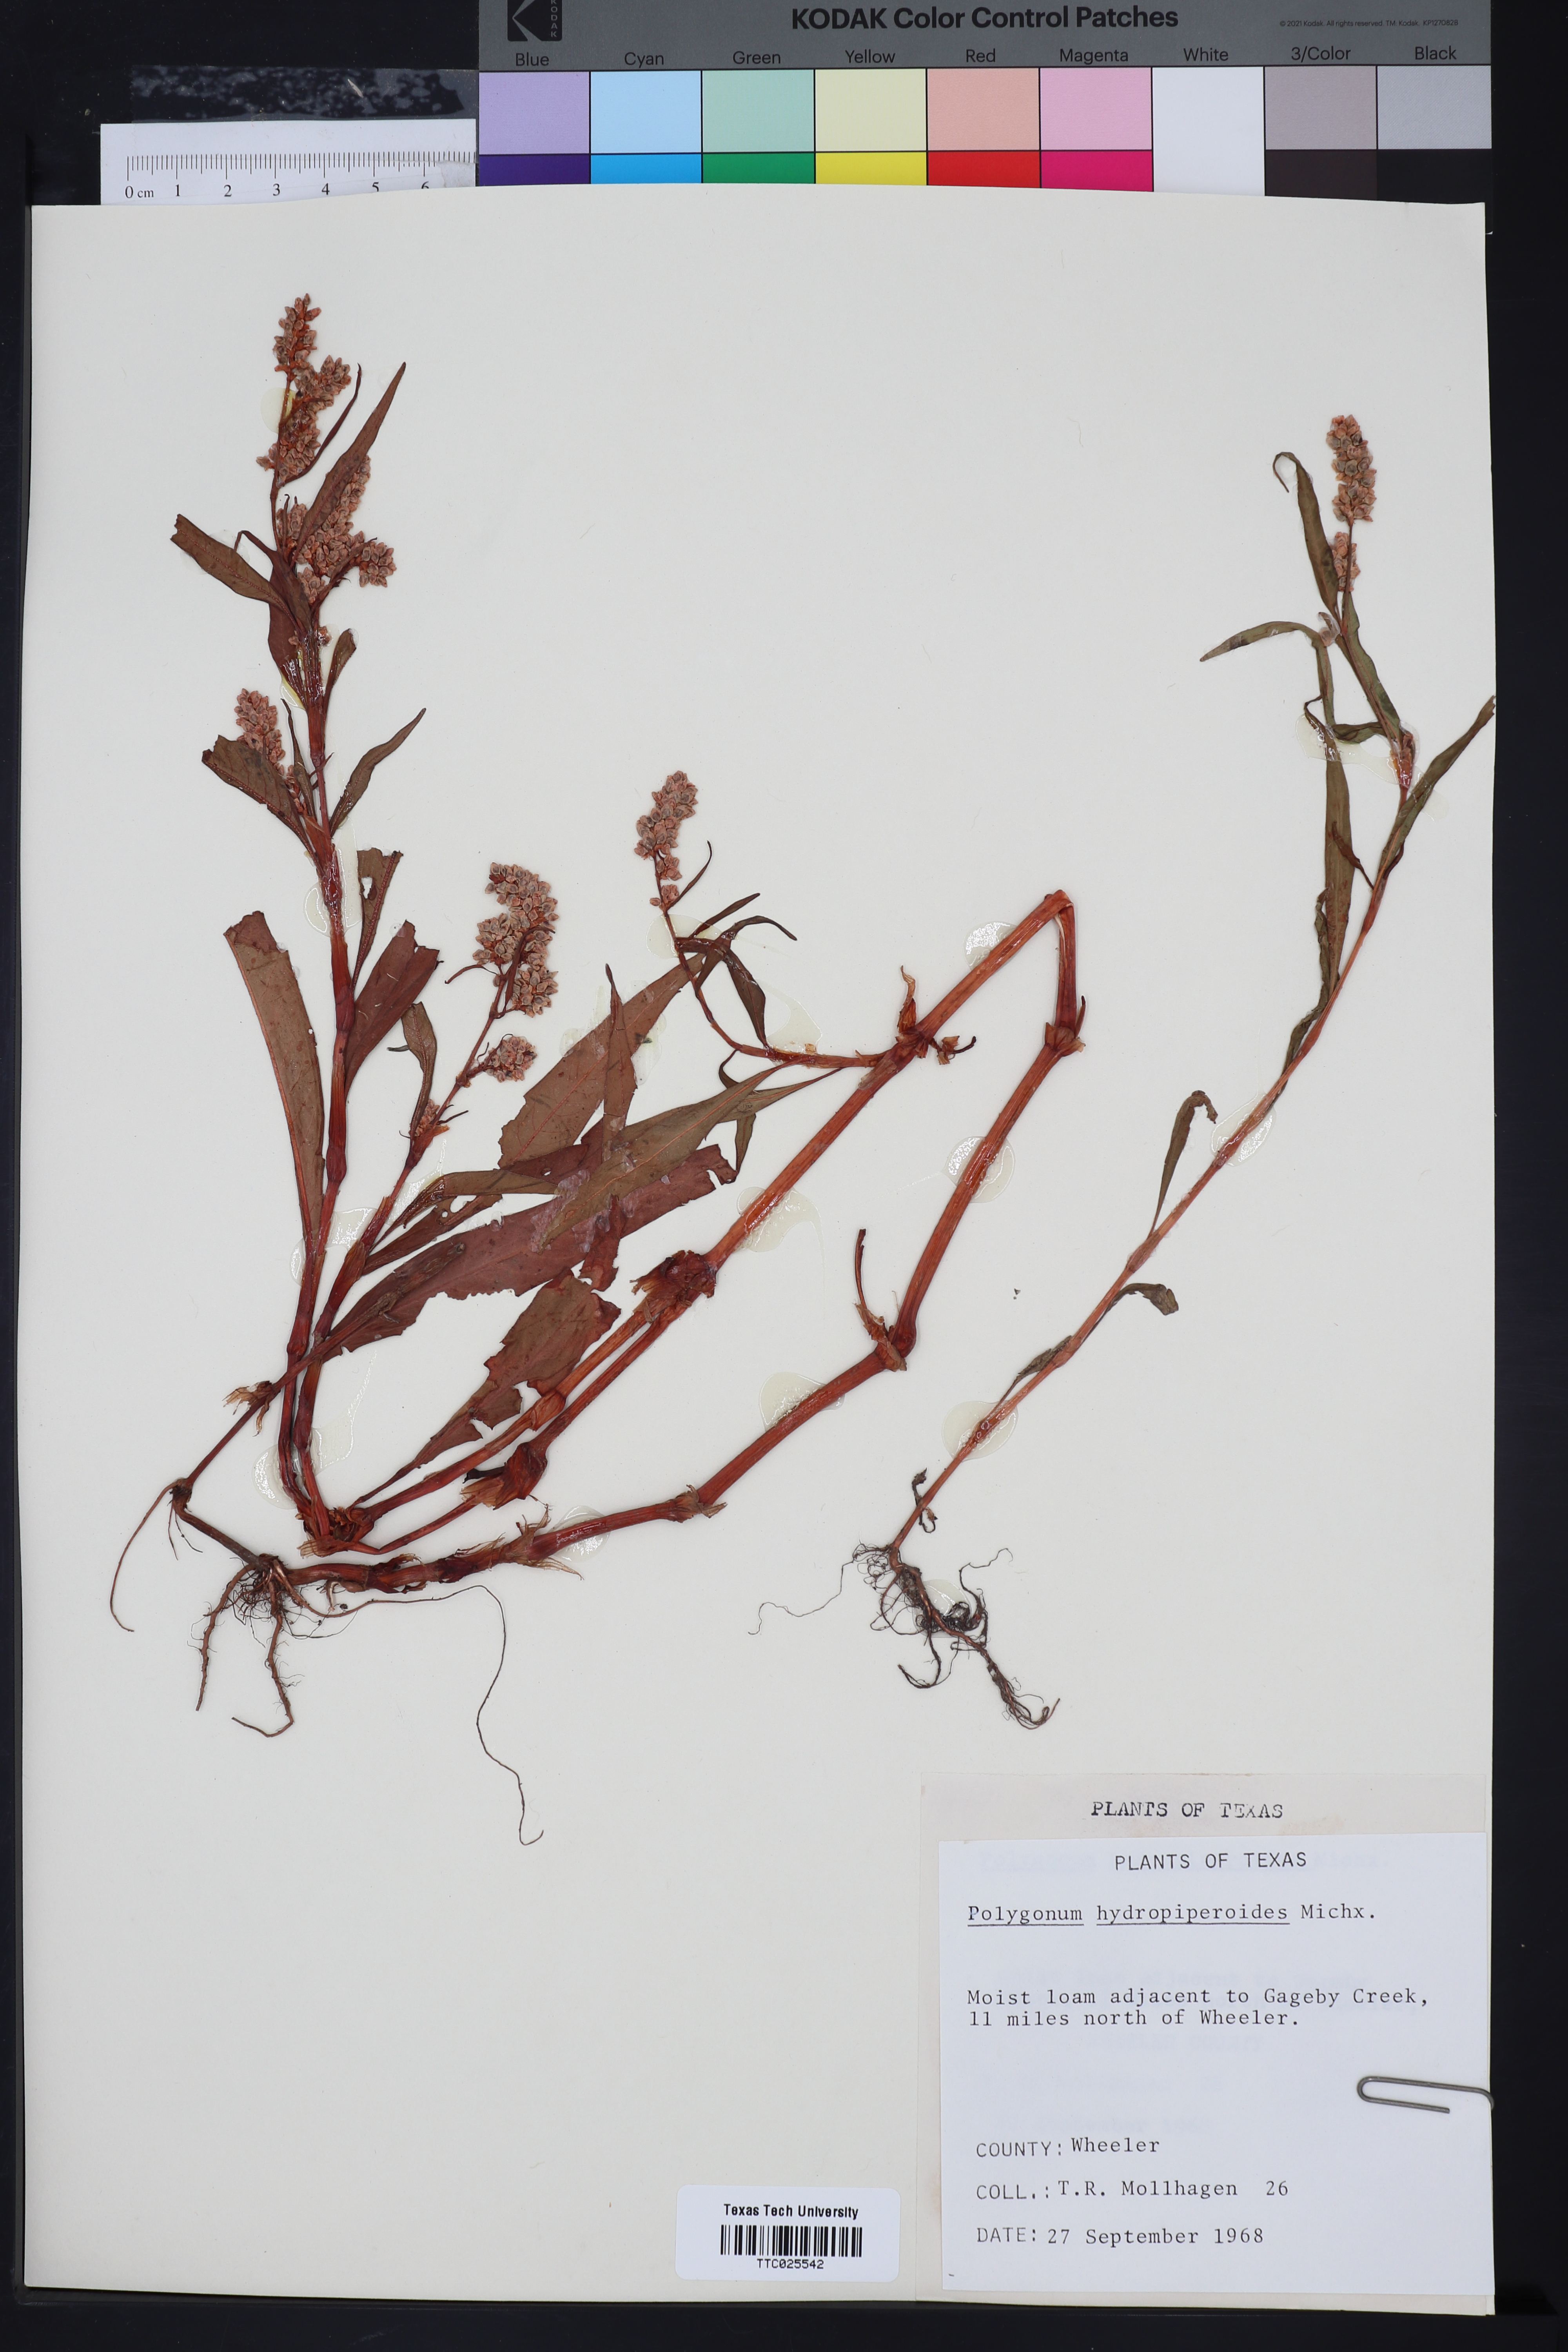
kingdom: Plantae
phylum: Tracheophyta
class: Magnoliopsida
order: Caryophyllales
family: Polygonaceae
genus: Persicaria
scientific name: Persicaria hydropiperoides
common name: Swamp smartweed
